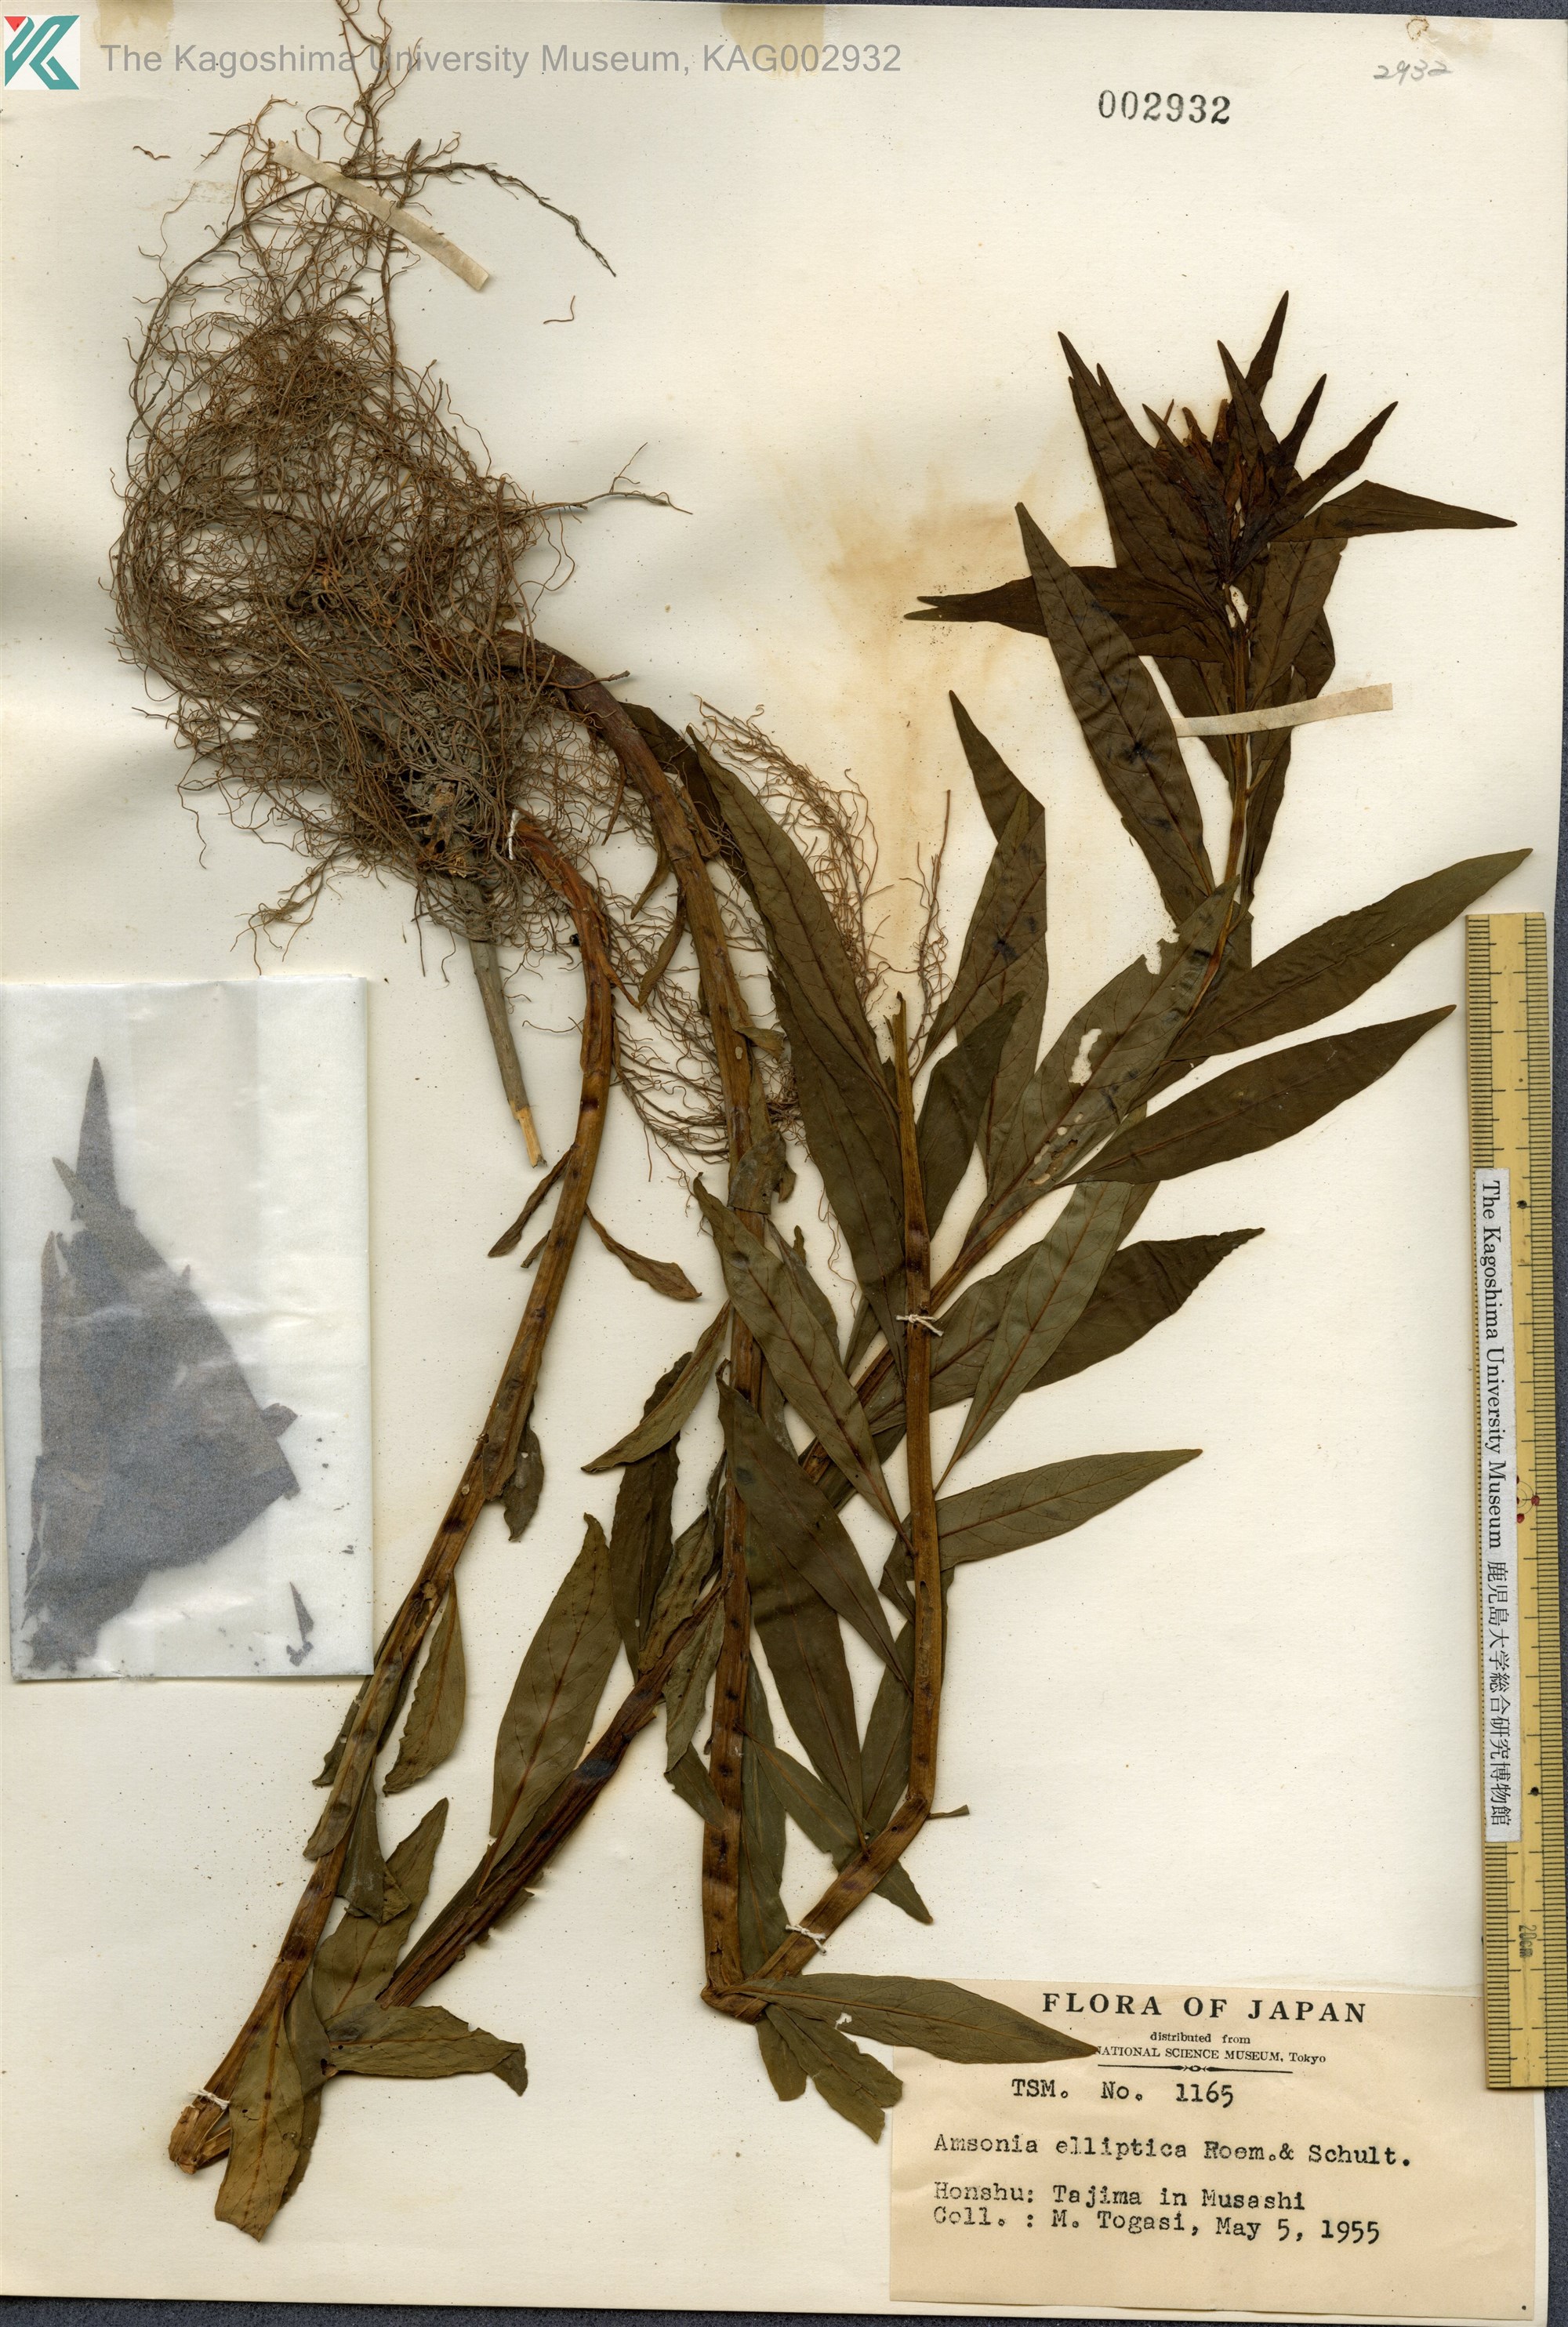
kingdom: Plantae
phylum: Tracheophyta
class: Magnoliopsida
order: Gentianales
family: Apocynaceae
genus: Amsonia
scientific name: Amsonia elliptica
